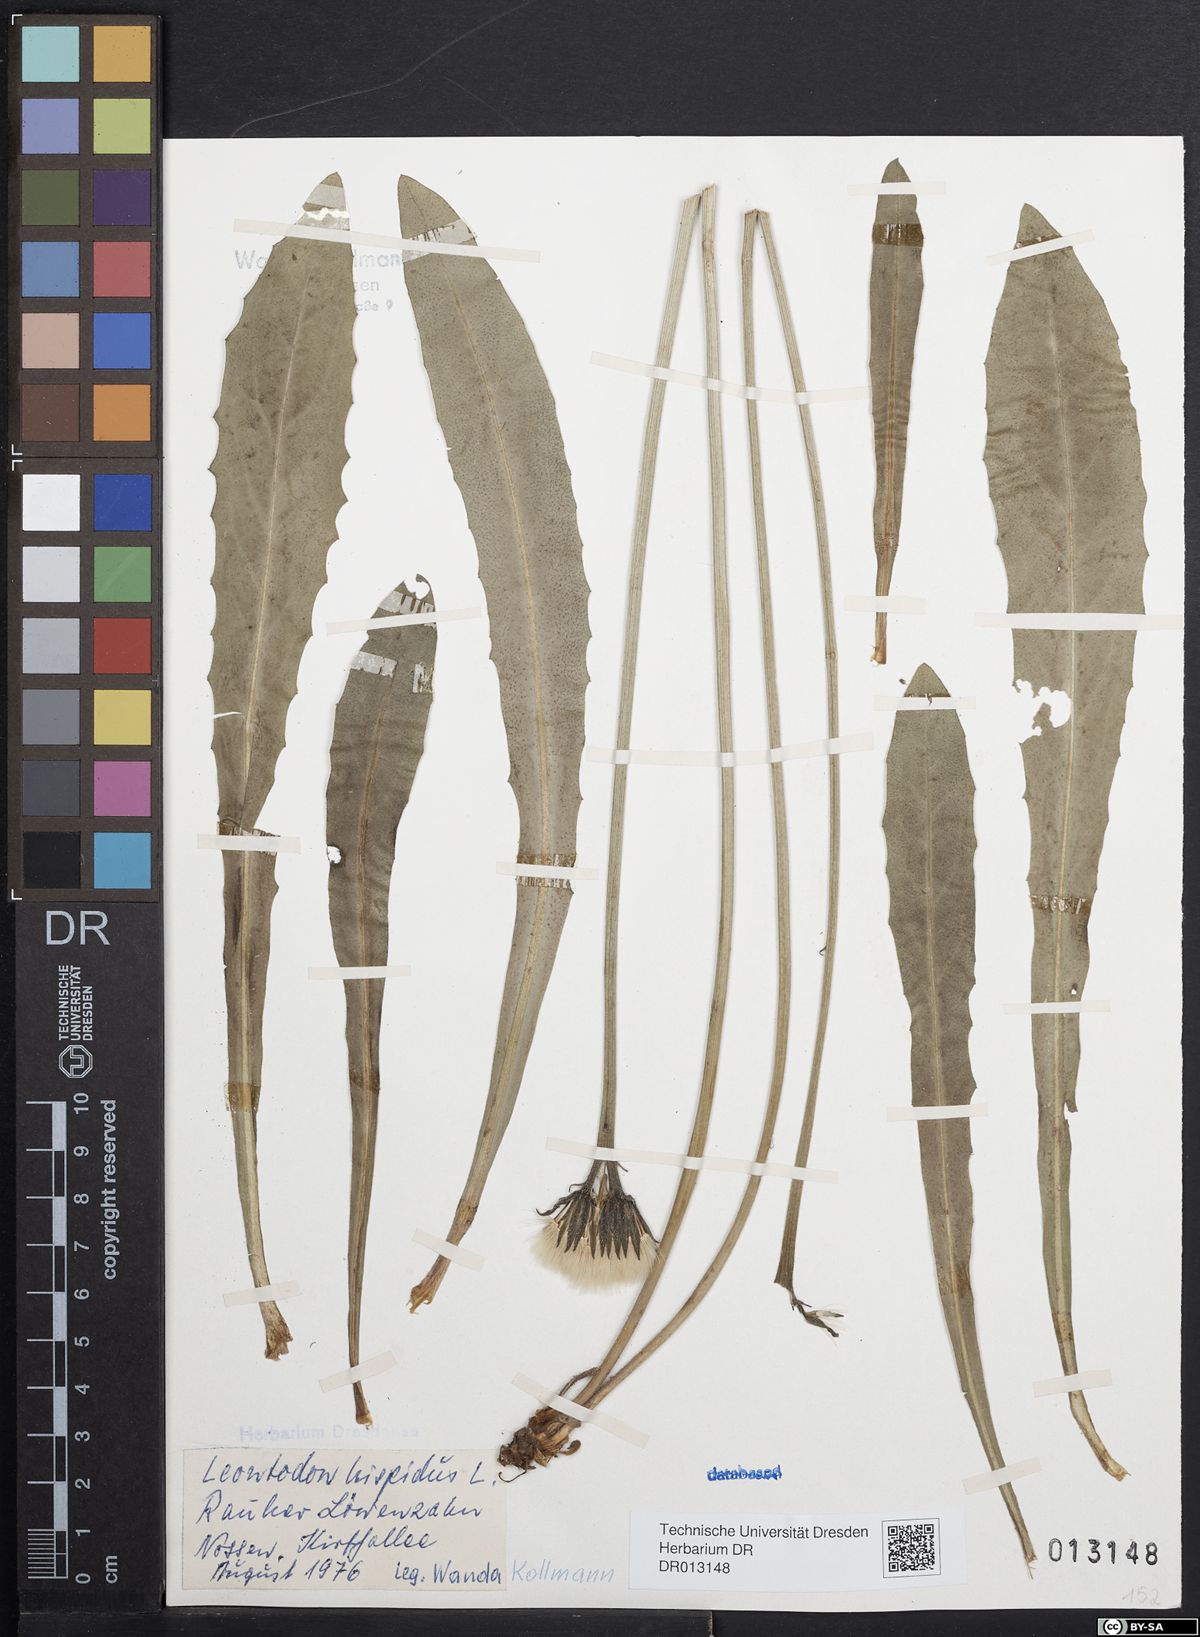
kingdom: Plantae
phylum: Tracheophyta
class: Magnoliopsida
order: Asterales
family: Asteraceae
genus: Leontodon
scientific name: Leontodon hispidus
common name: Rough hawkbit
